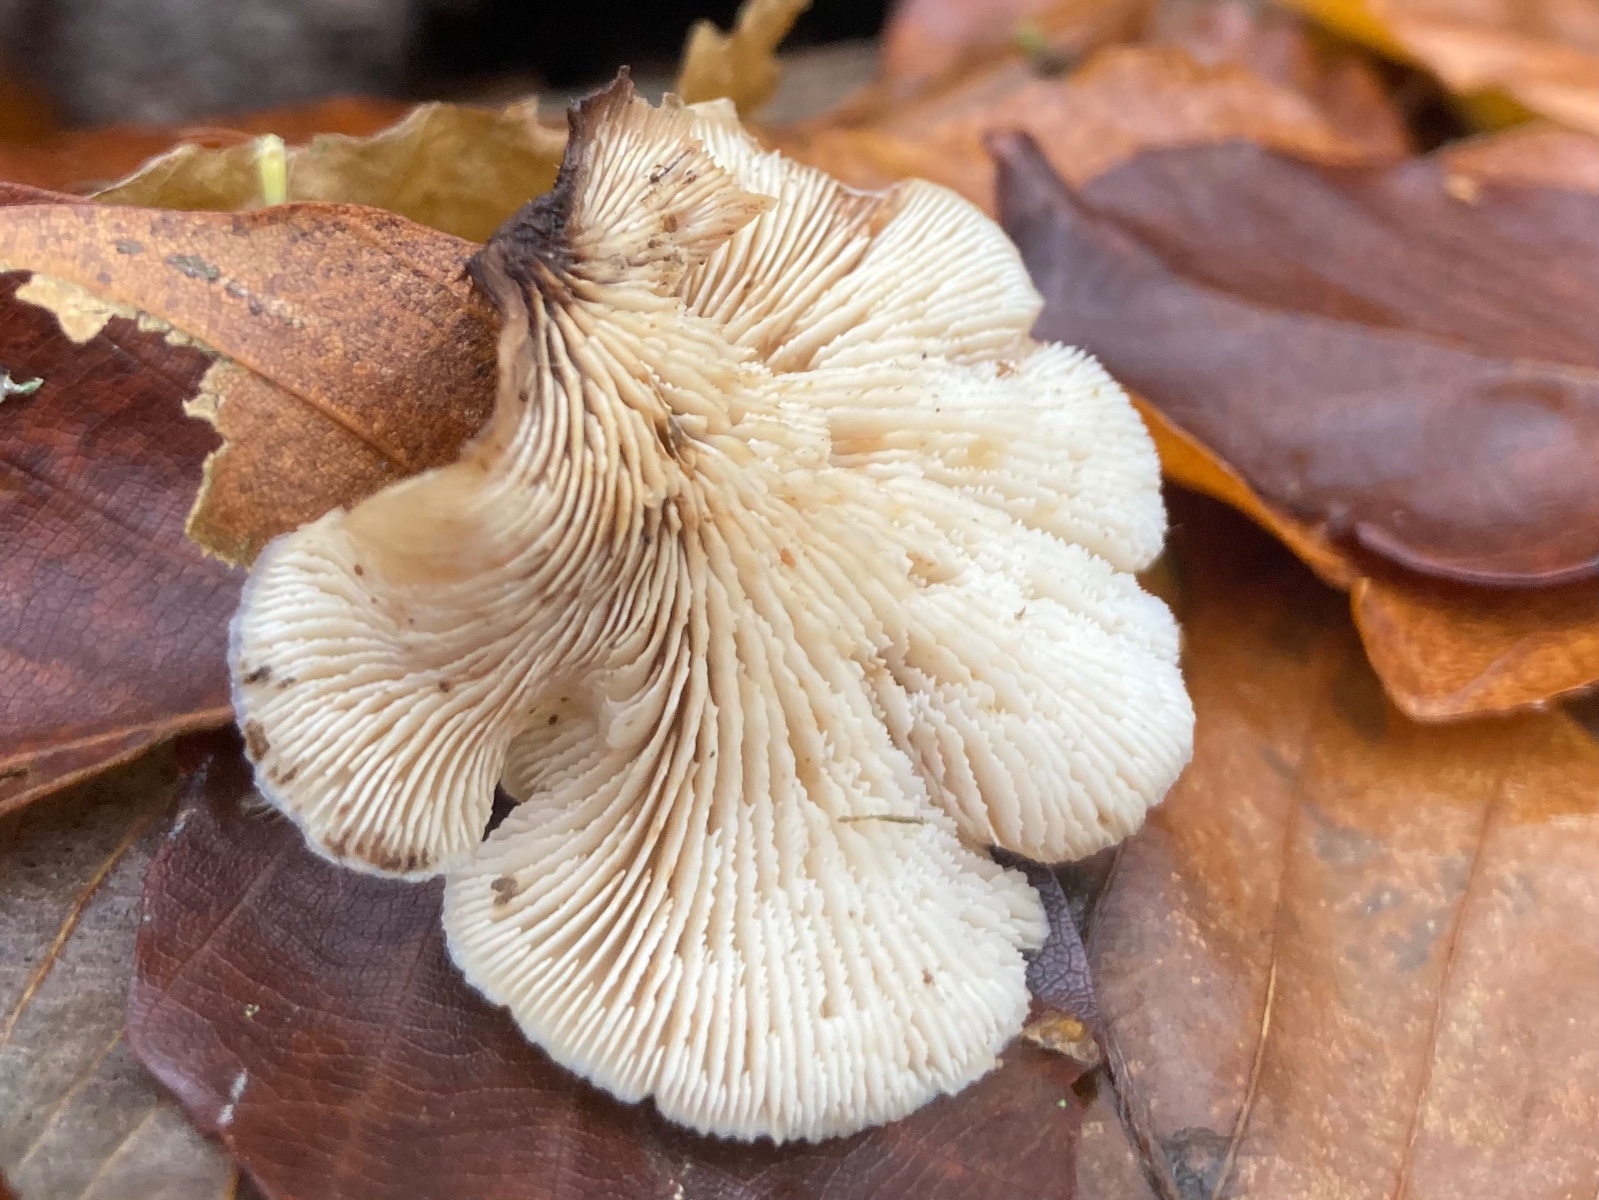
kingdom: Fungi
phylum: Basidiomycota
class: Agaricomycetes
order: Russulales
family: Auriscalpiaceae
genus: Lentinellus
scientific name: Lentinellus ursinus
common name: børstehåret savbladhat
